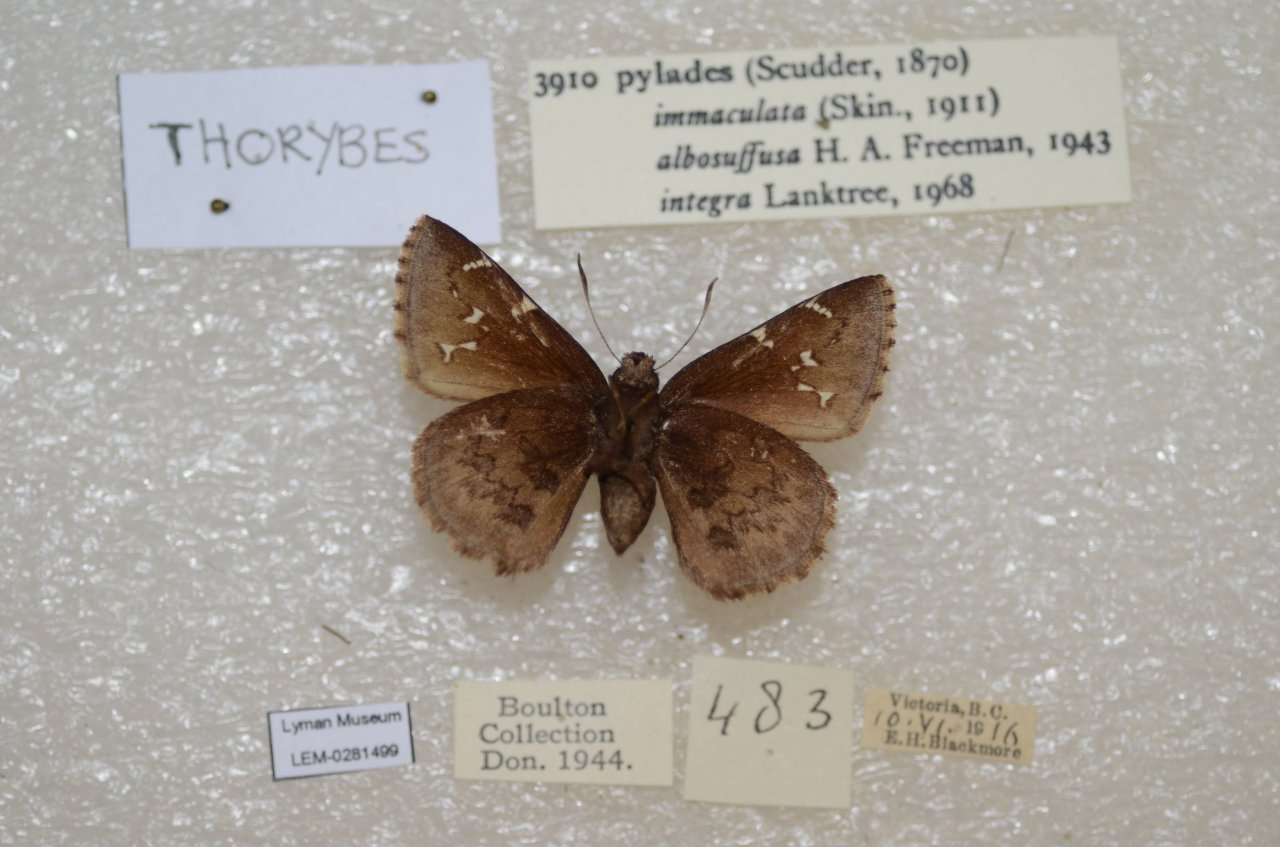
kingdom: Animalia
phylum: Arthropoda
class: Insecta
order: Lepidoptera
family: Hesperiidae
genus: Autochton
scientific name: Autochton
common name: Northern Cloudywing
